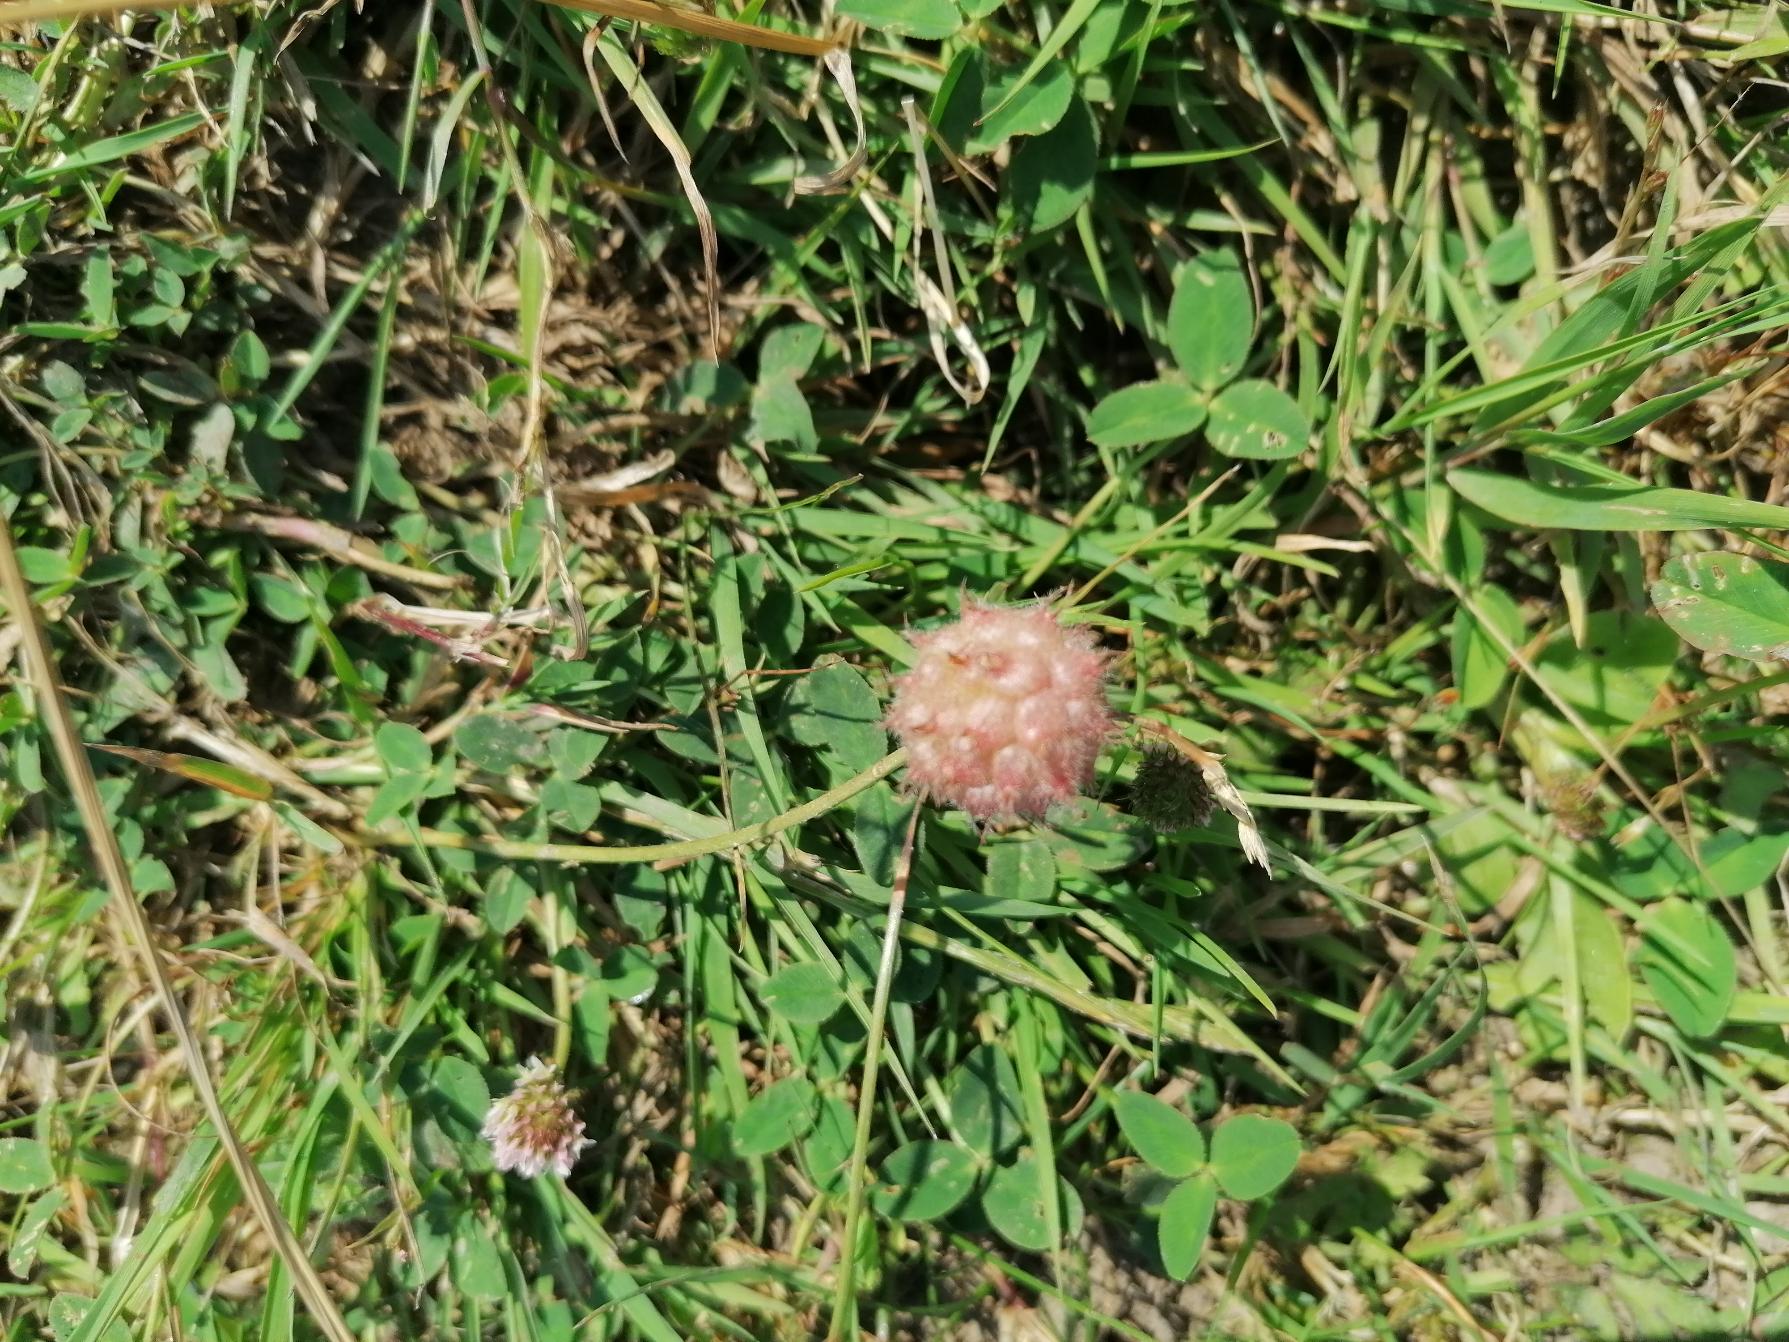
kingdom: Plantae
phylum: Tracheophyta
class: Magnoliopsida
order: Fabales
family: Fabaceae
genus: Trifolium
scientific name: Trifolium fragiferum
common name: Jordbær-kløver
